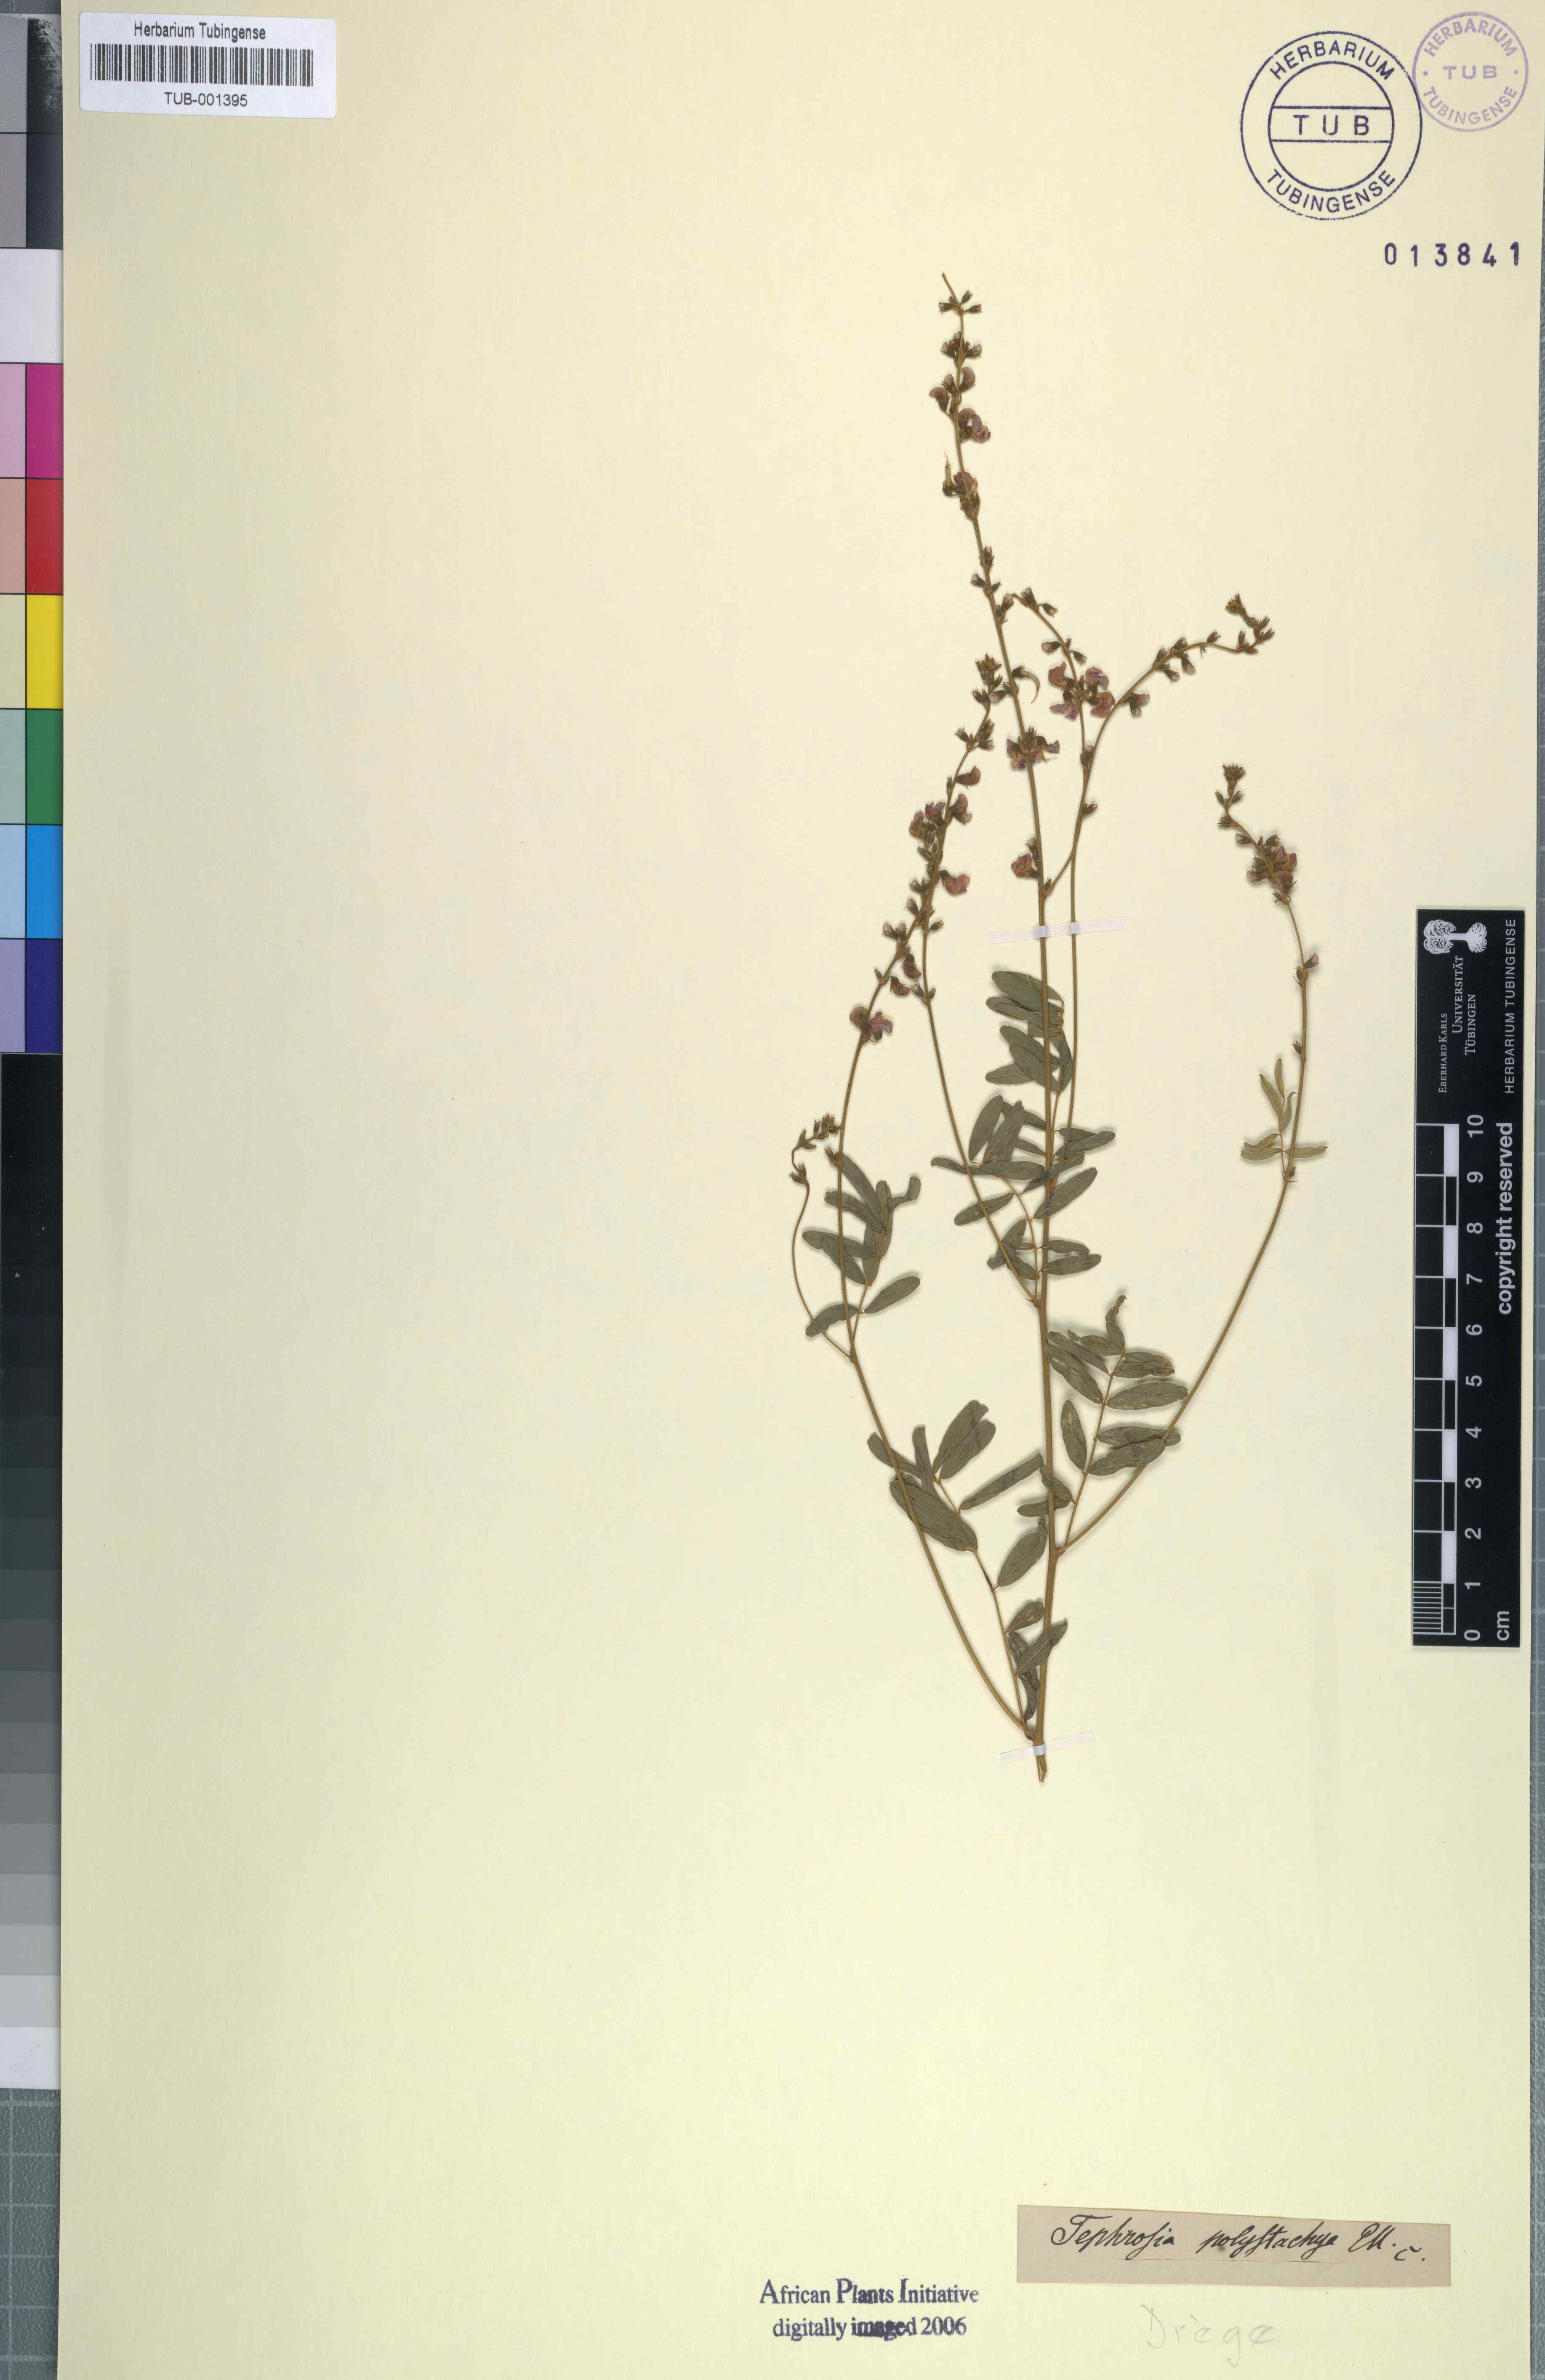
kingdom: Plantae
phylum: Tracheophyta
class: Magnoliopsida
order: Fabales
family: Fabaceae
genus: Tephrosia
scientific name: Tephrosia polystachya
